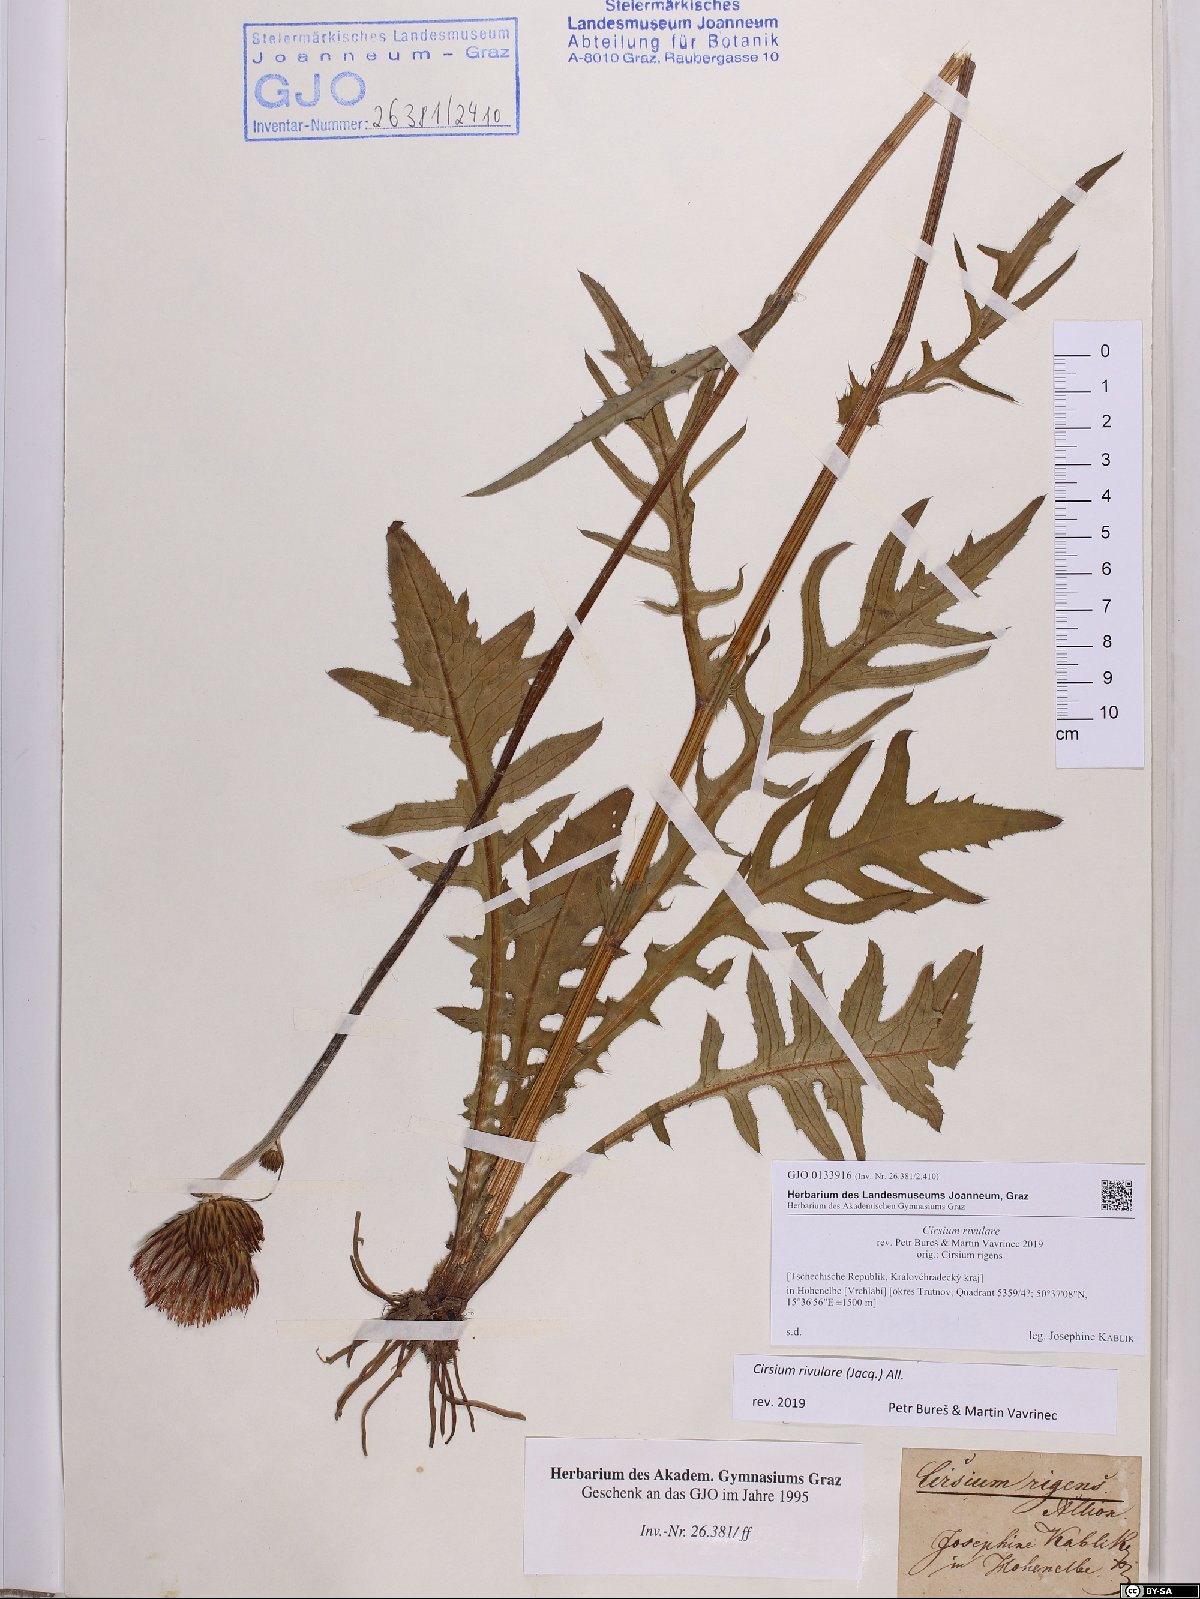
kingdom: Plantae
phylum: Tracheophyta
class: Magnoliopsida
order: Asterales
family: Asteraceae
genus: Cirsium
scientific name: Cirsium rivulare
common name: Brook thistle
